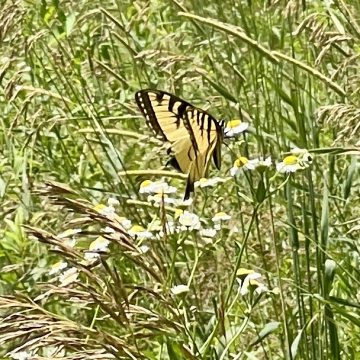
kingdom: Animalia
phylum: Arthropoda
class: Insecta
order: Lepidoptera
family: Papilionidae
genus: Pterourus
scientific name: Pterourus
